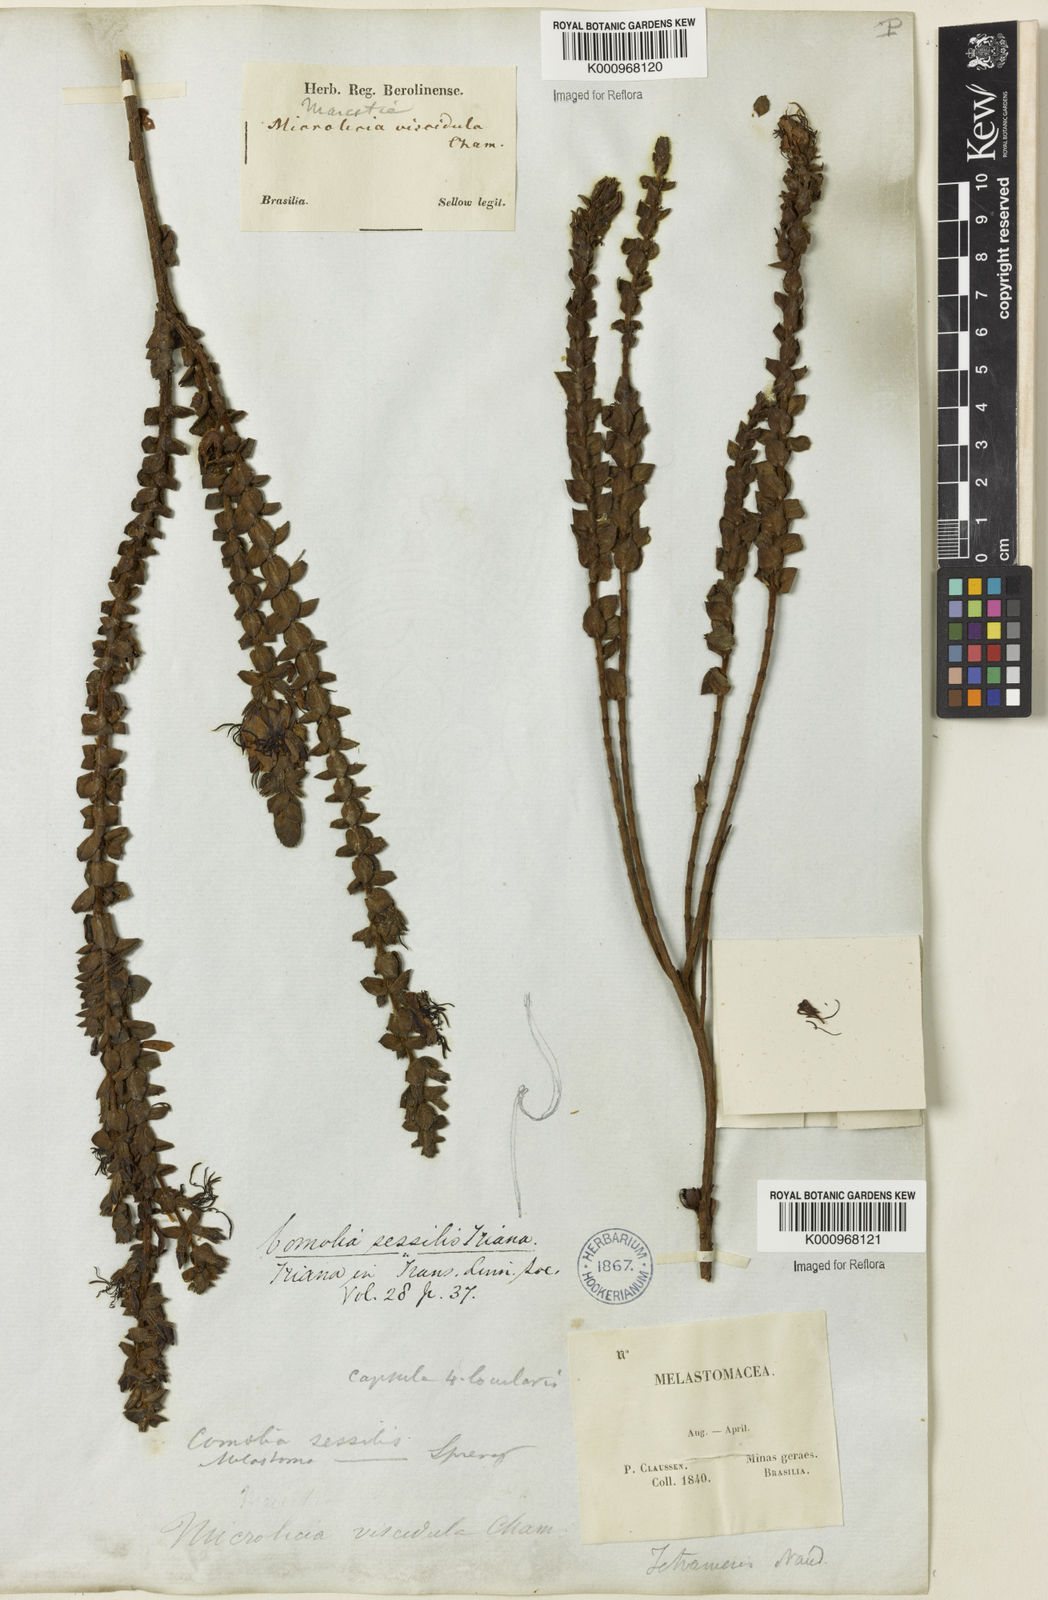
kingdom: Plantae
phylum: Tracheophyta
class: Magnoliopsida
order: Myrtales
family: Melastomataceae
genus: Fritzschia
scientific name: Fritzschia sessilis
